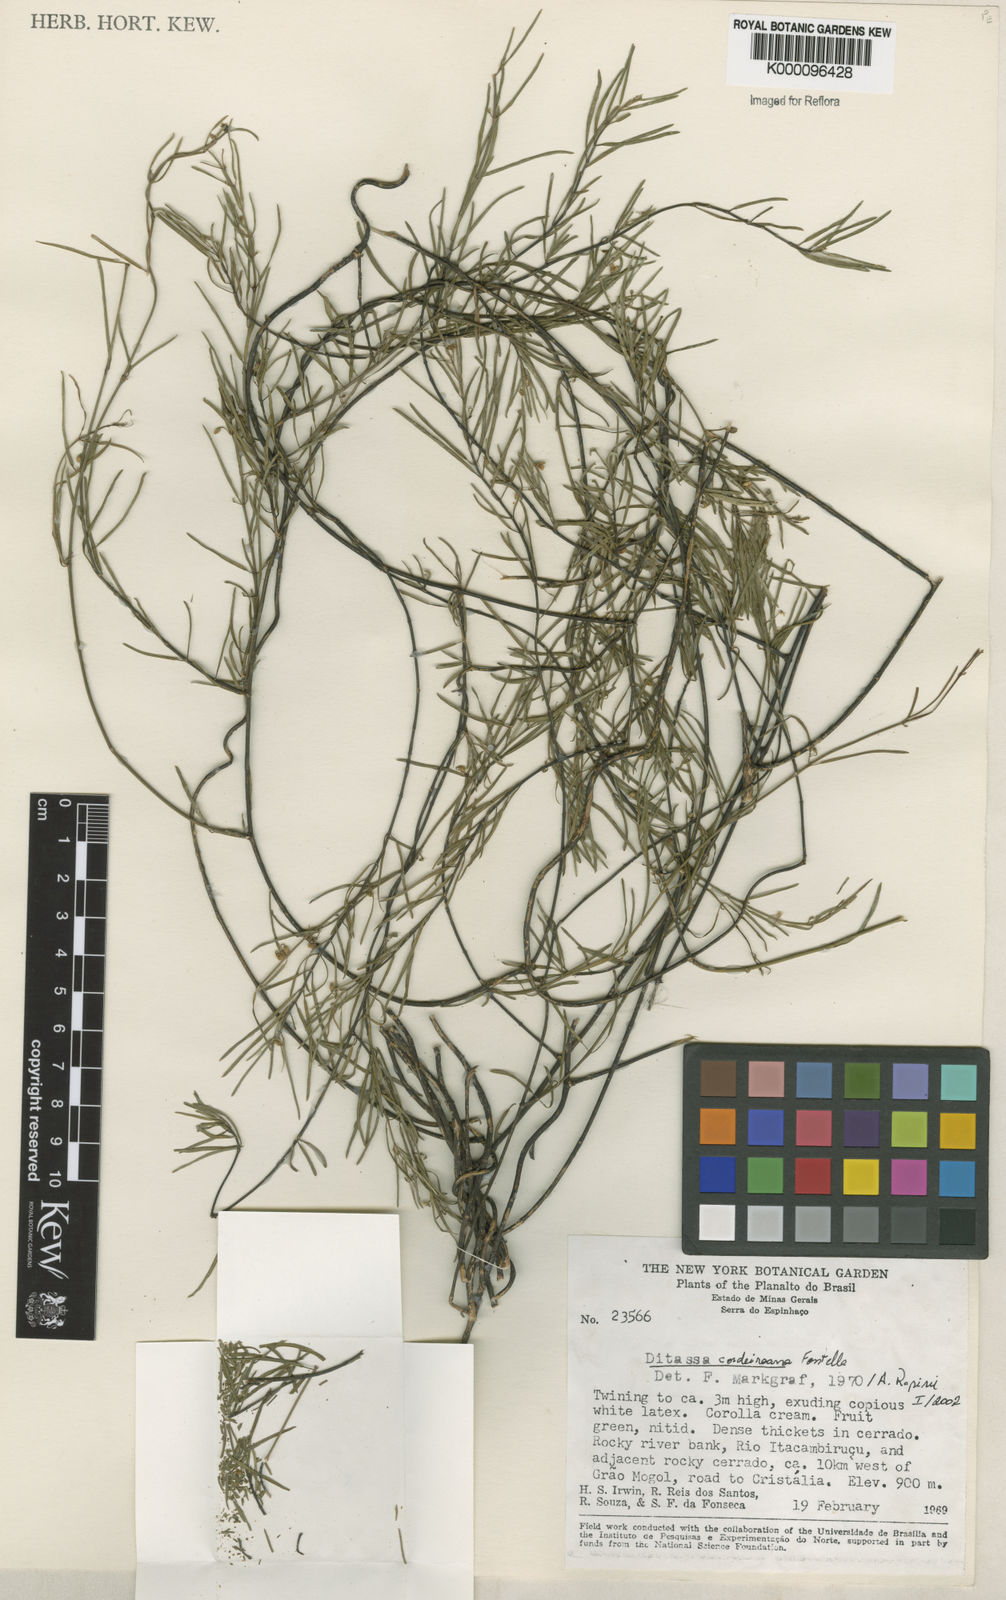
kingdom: Plantae
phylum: Tracheophyta
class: Magnoliopsida
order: Gentianales
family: Apocynaceae
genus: Ditassa
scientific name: Ditassa cordeiroana
